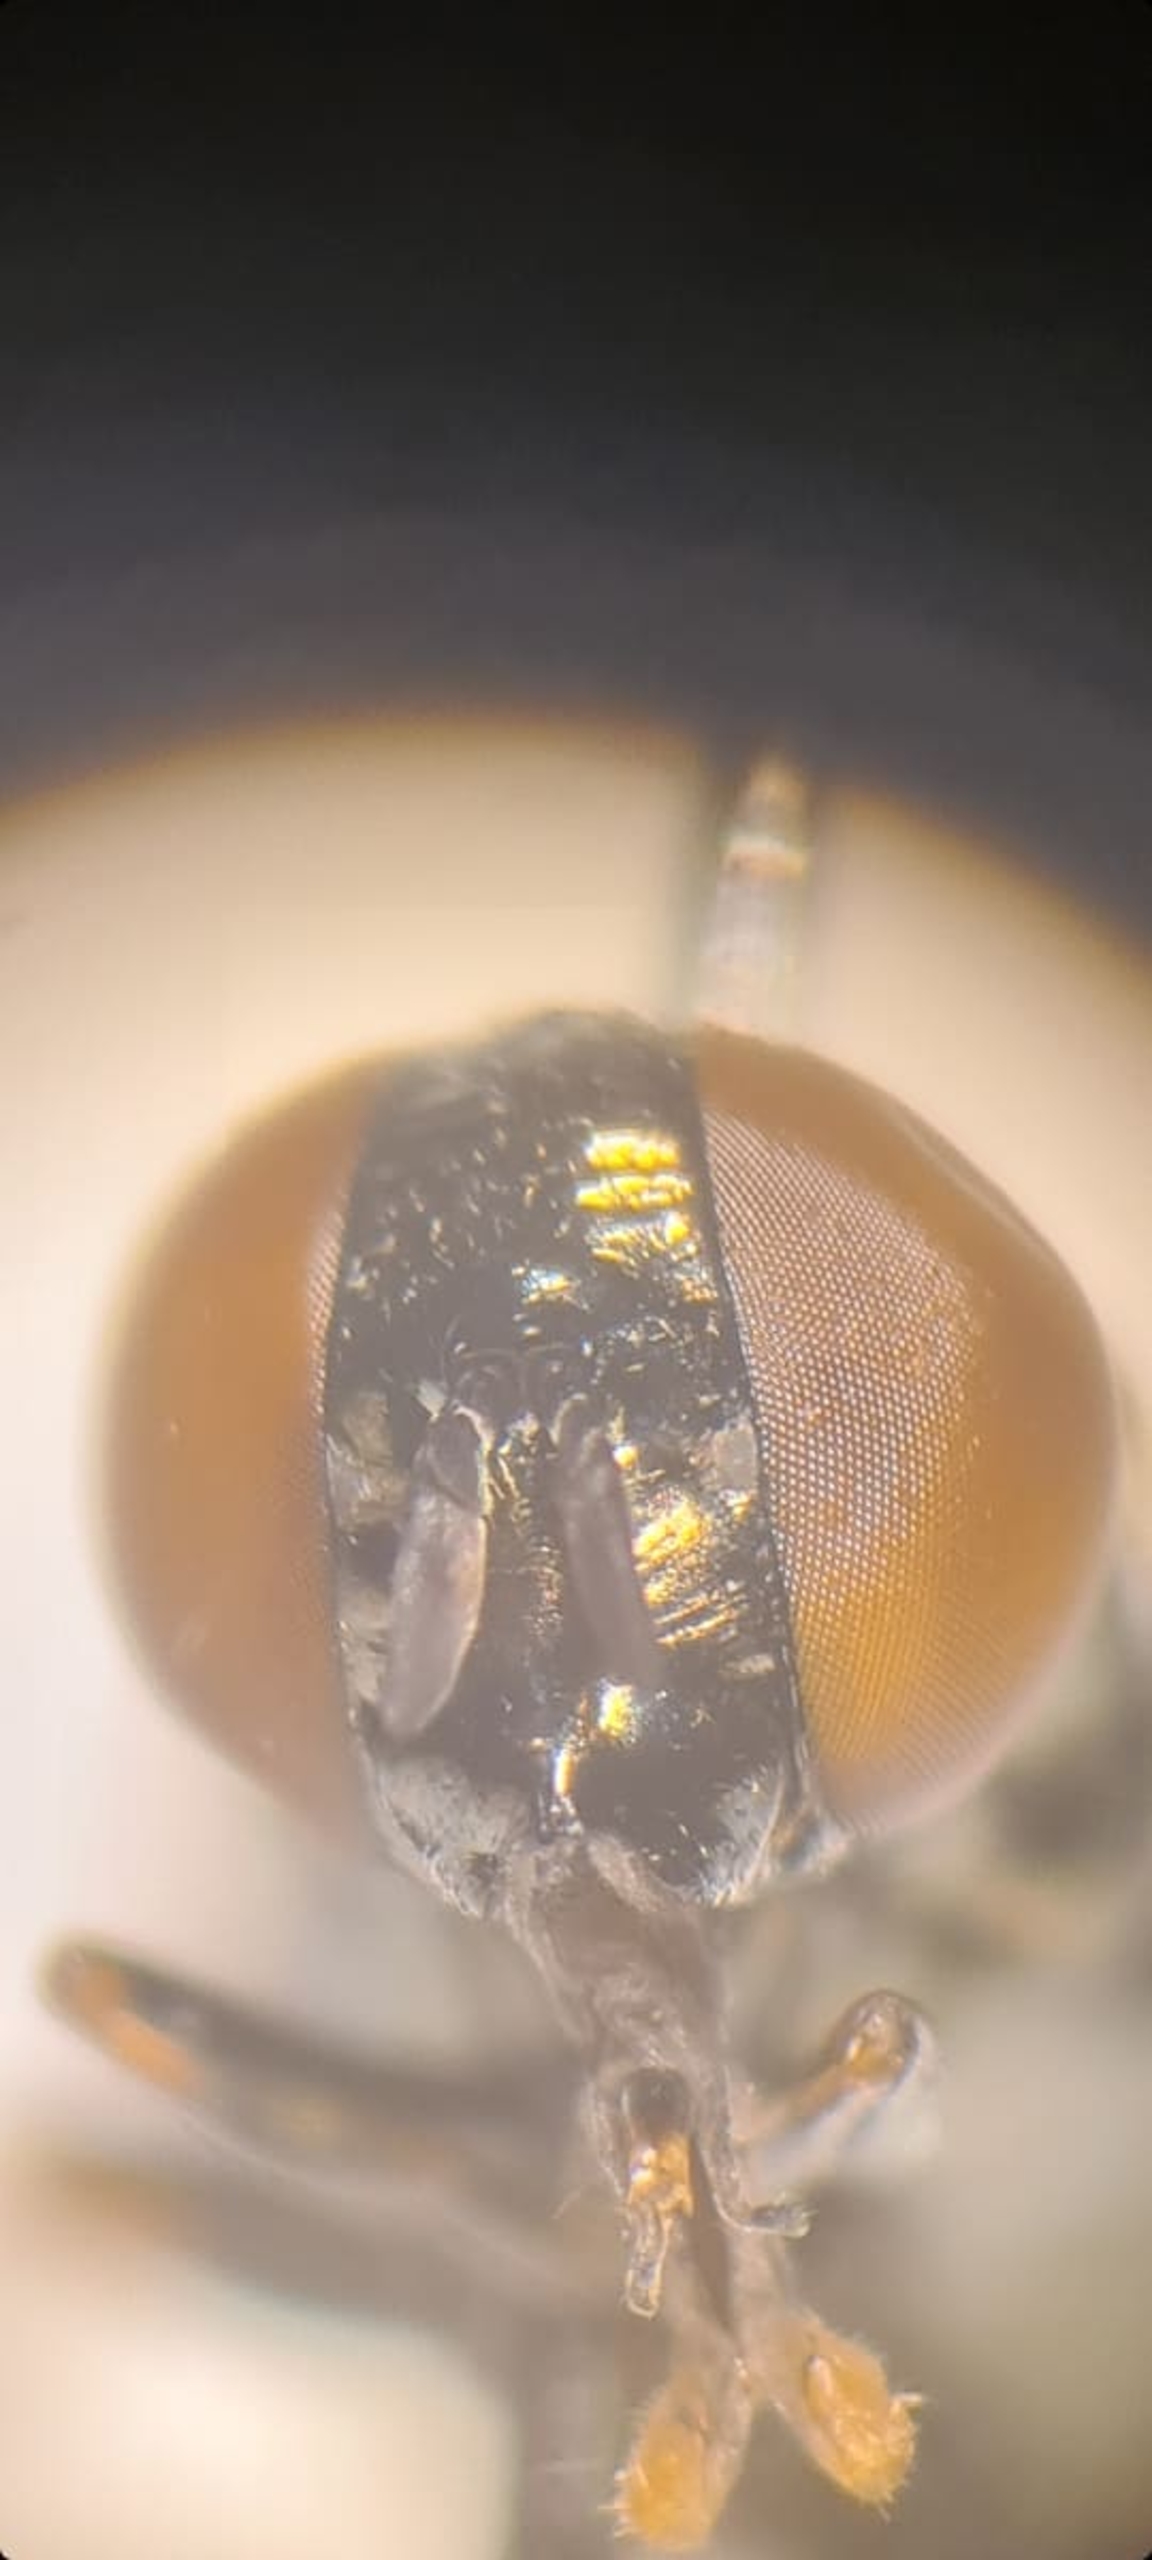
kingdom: Animalia
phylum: Arthropoda
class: Insecta
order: Diptera
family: Syrphidae
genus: Orthonevra
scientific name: Orthonevra intermedia
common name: Hede-mosesvirreflue
